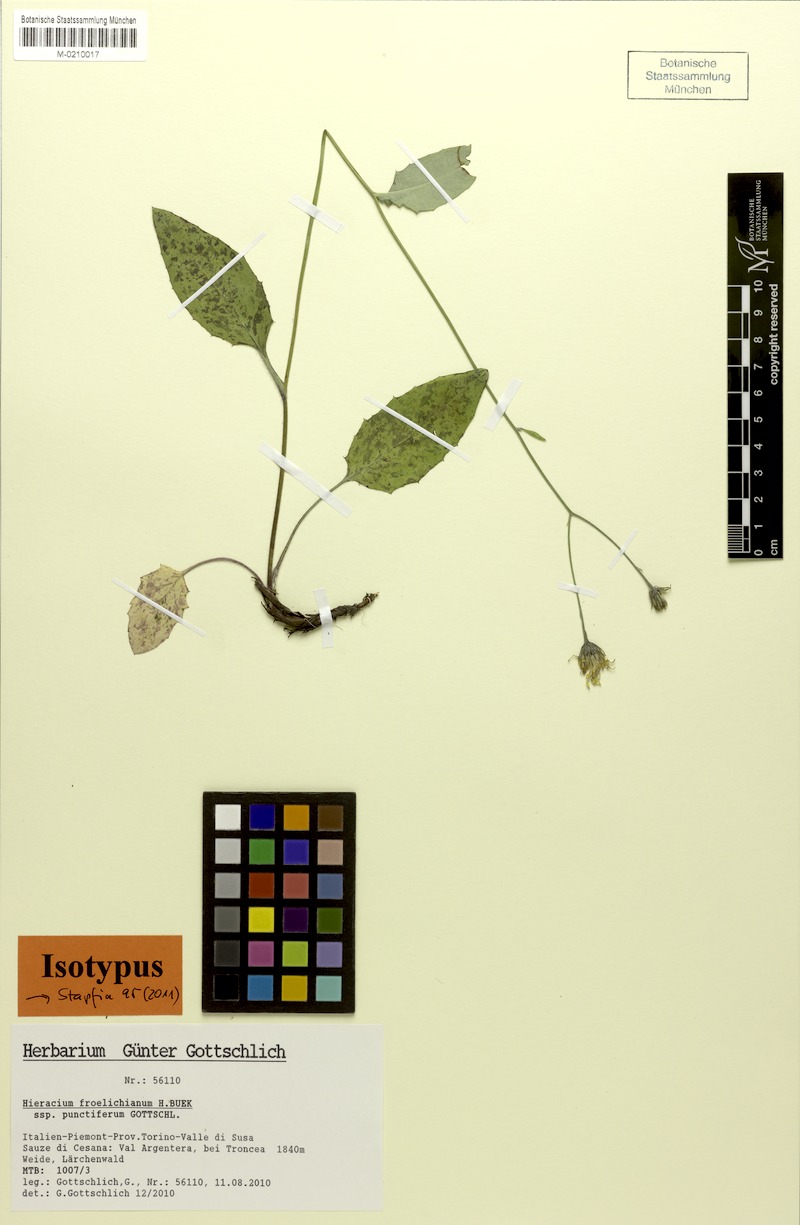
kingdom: Plantae
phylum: Tracheophyta
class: Magnoliopsida
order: Asterales
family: Asteraceae
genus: Hieracium
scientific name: Hieracium froelichianum
